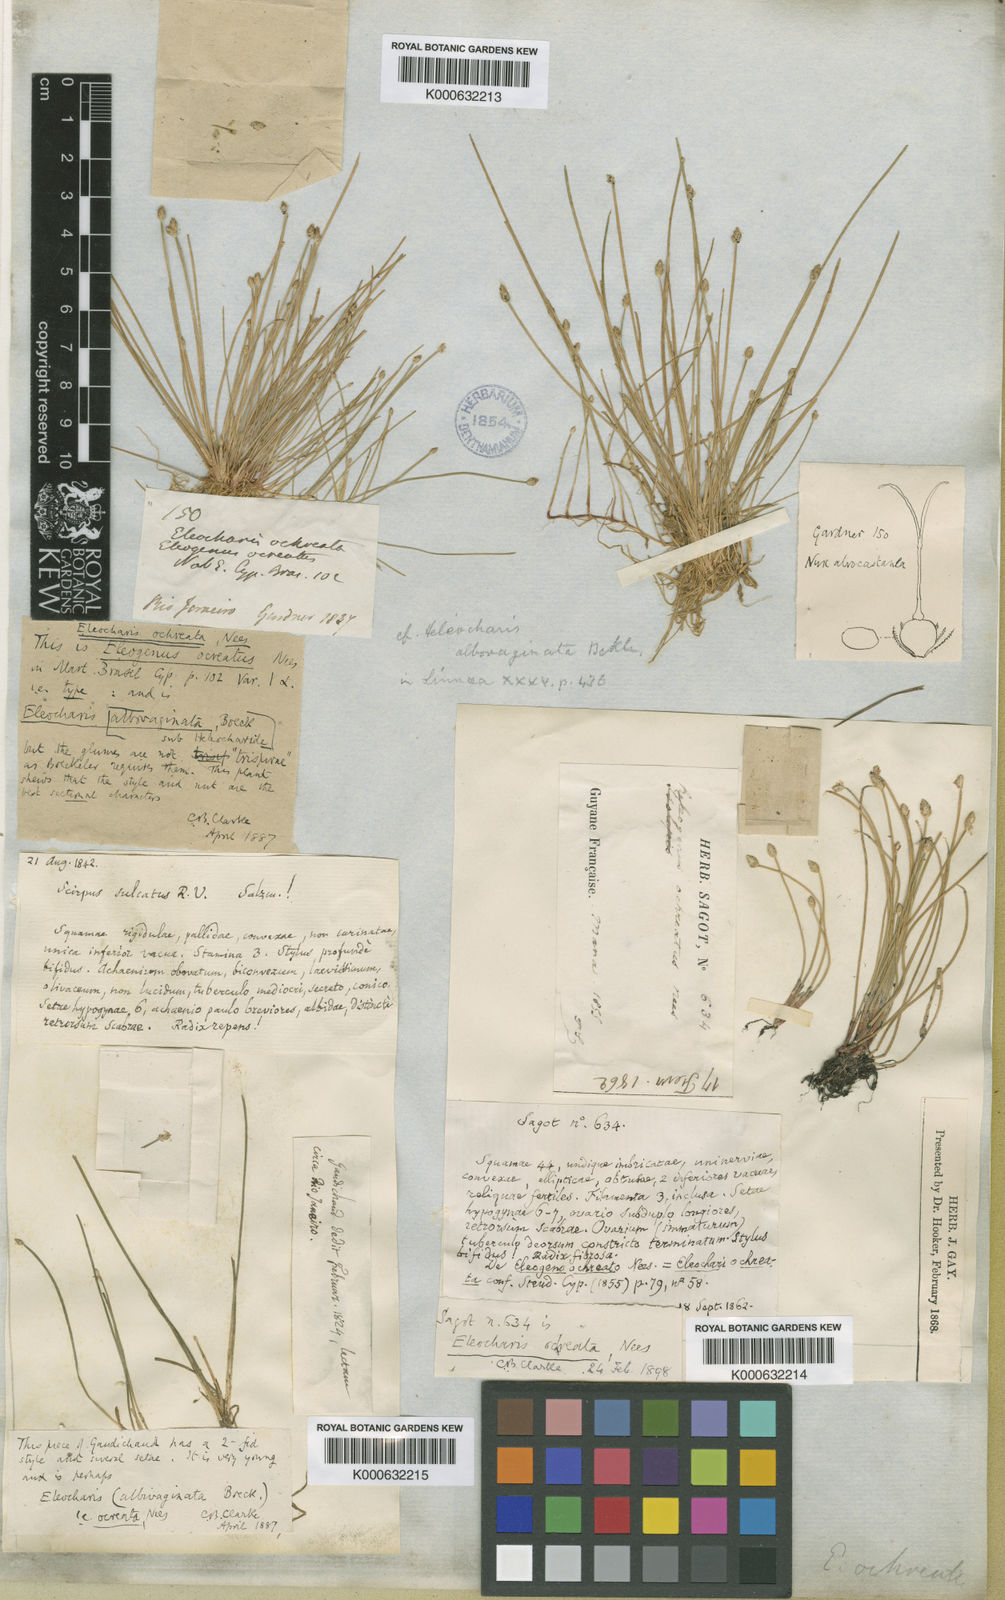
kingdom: Plantae
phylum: Tracheophyta
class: Liliopsida
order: Poales
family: Cyperaceae
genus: Eleocharis
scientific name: Eleocharis flavescens
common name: Yellow spikerush
